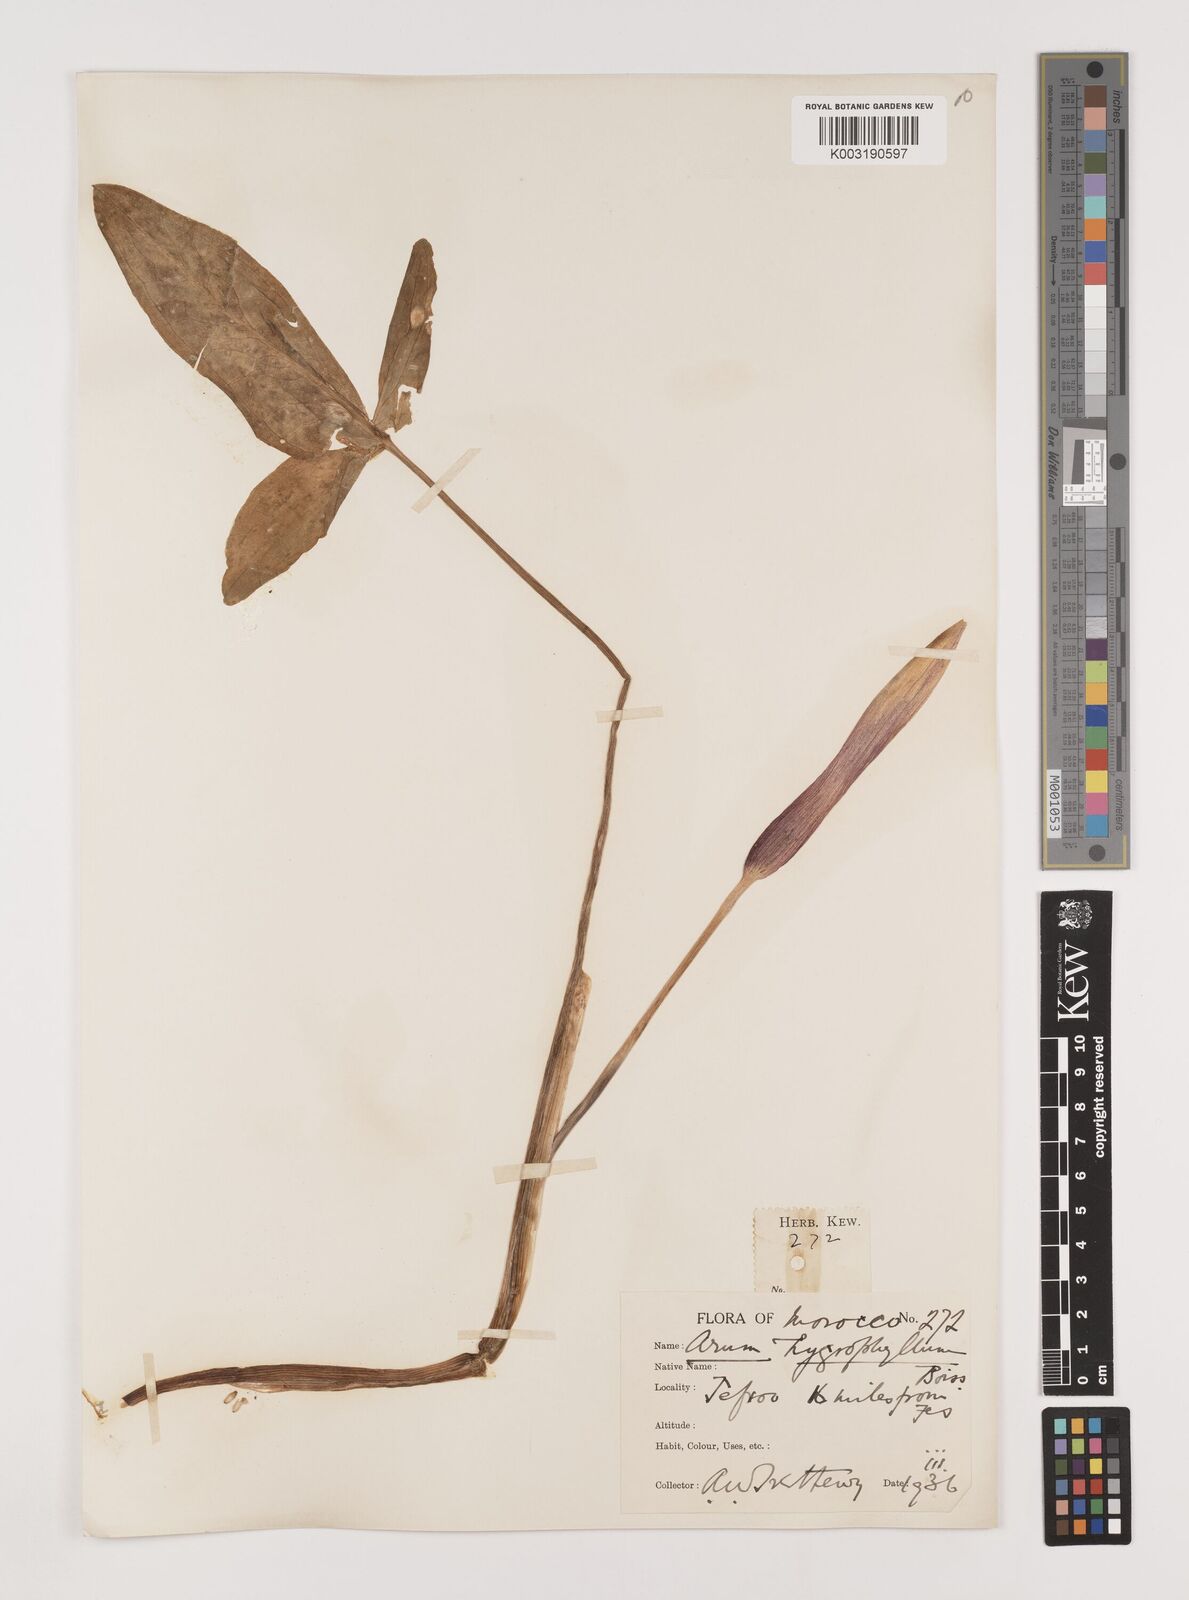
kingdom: Plantae
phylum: Tracheophyta
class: Liliopsida
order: Alismatales
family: Araceae
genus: Arum
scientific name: Arum hygrophilum
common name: Water arum
